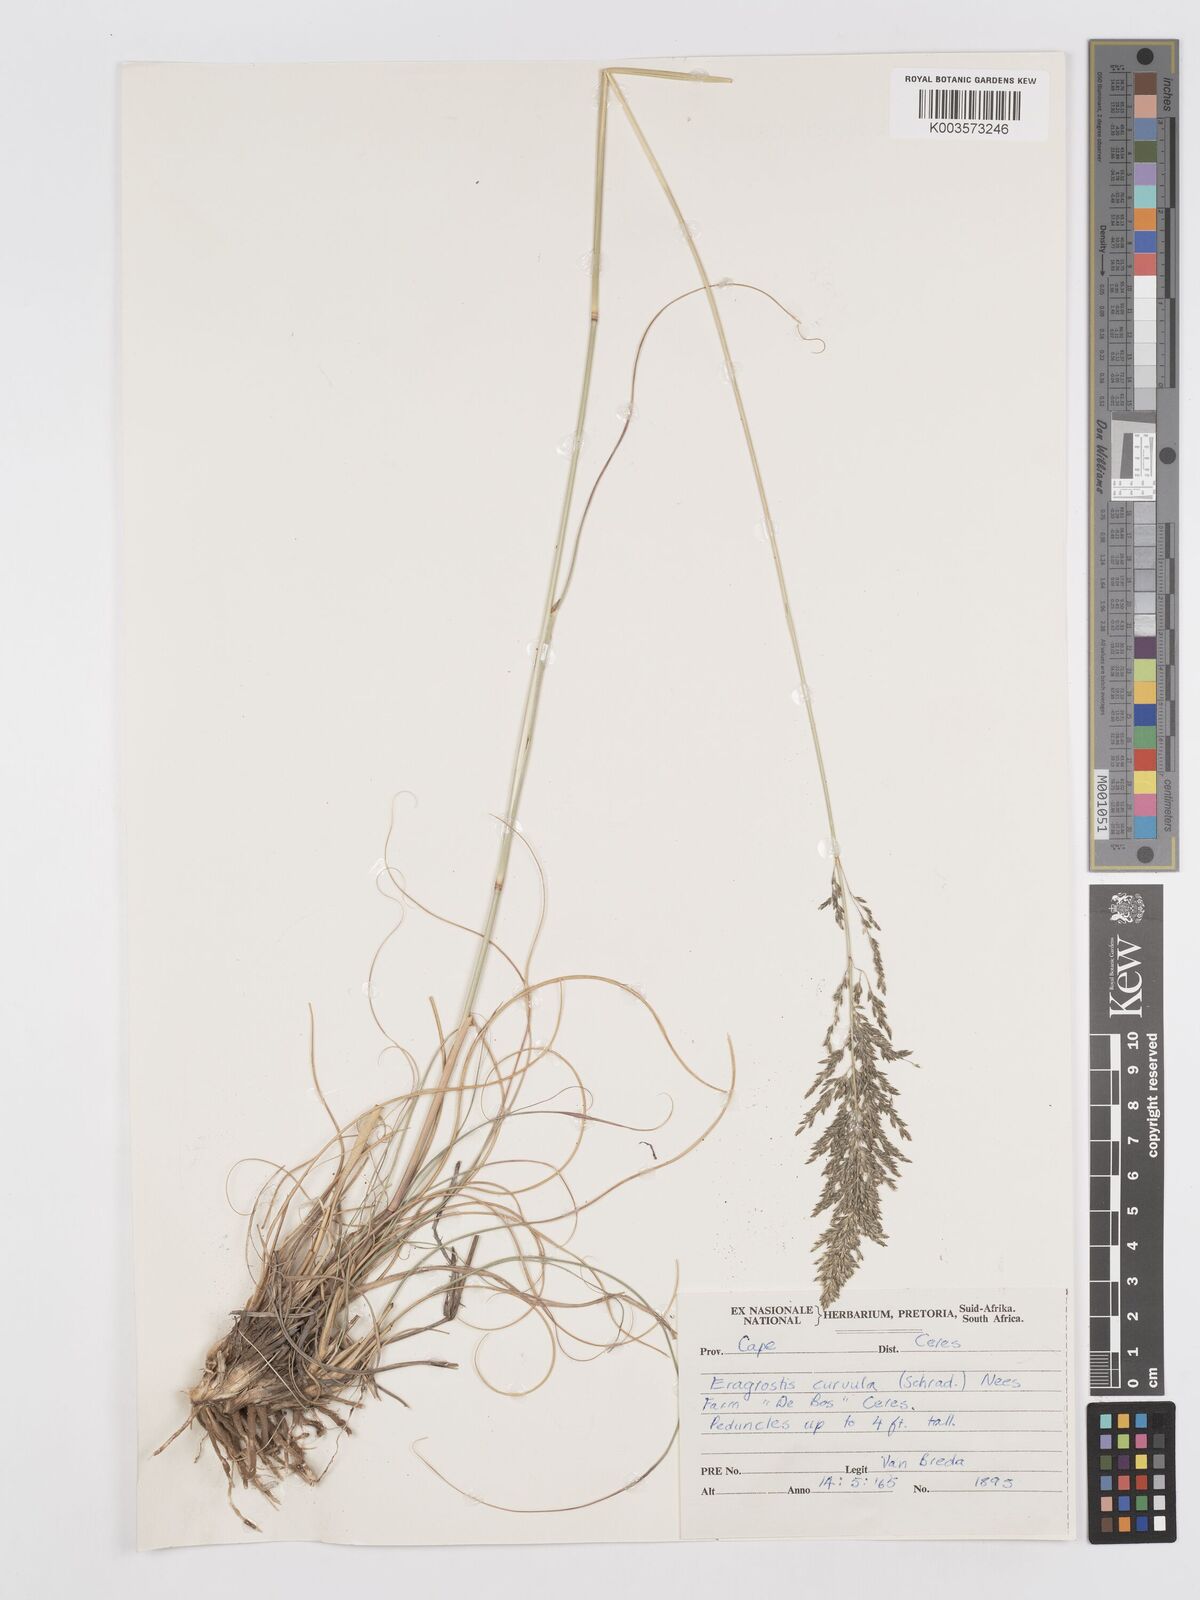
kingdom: Plantae
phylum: Tracheophyta
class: Liliopsida
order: Poales
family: Poaceae
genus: Eragrostis
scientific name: Eragrostis curvula
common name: African love-grass
